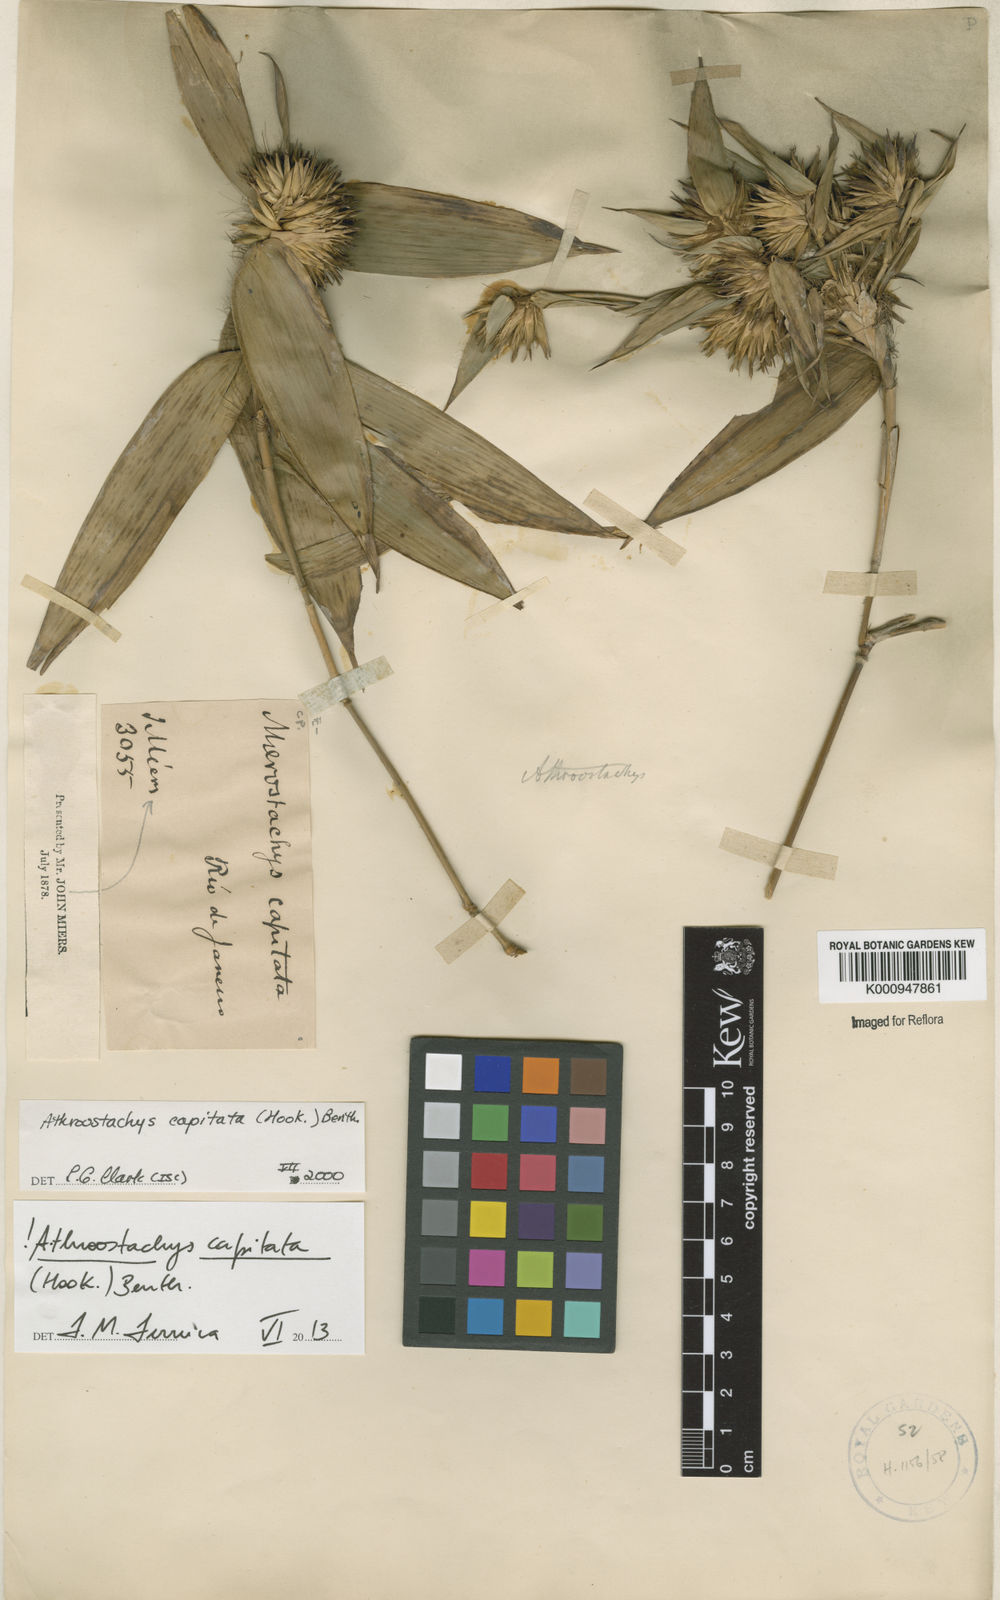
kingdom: Plantae
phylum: Tracheophyta
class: Liliopsida
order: Poales
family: Poaceae
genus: Athroostachys
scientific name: Athroostachys capitata
